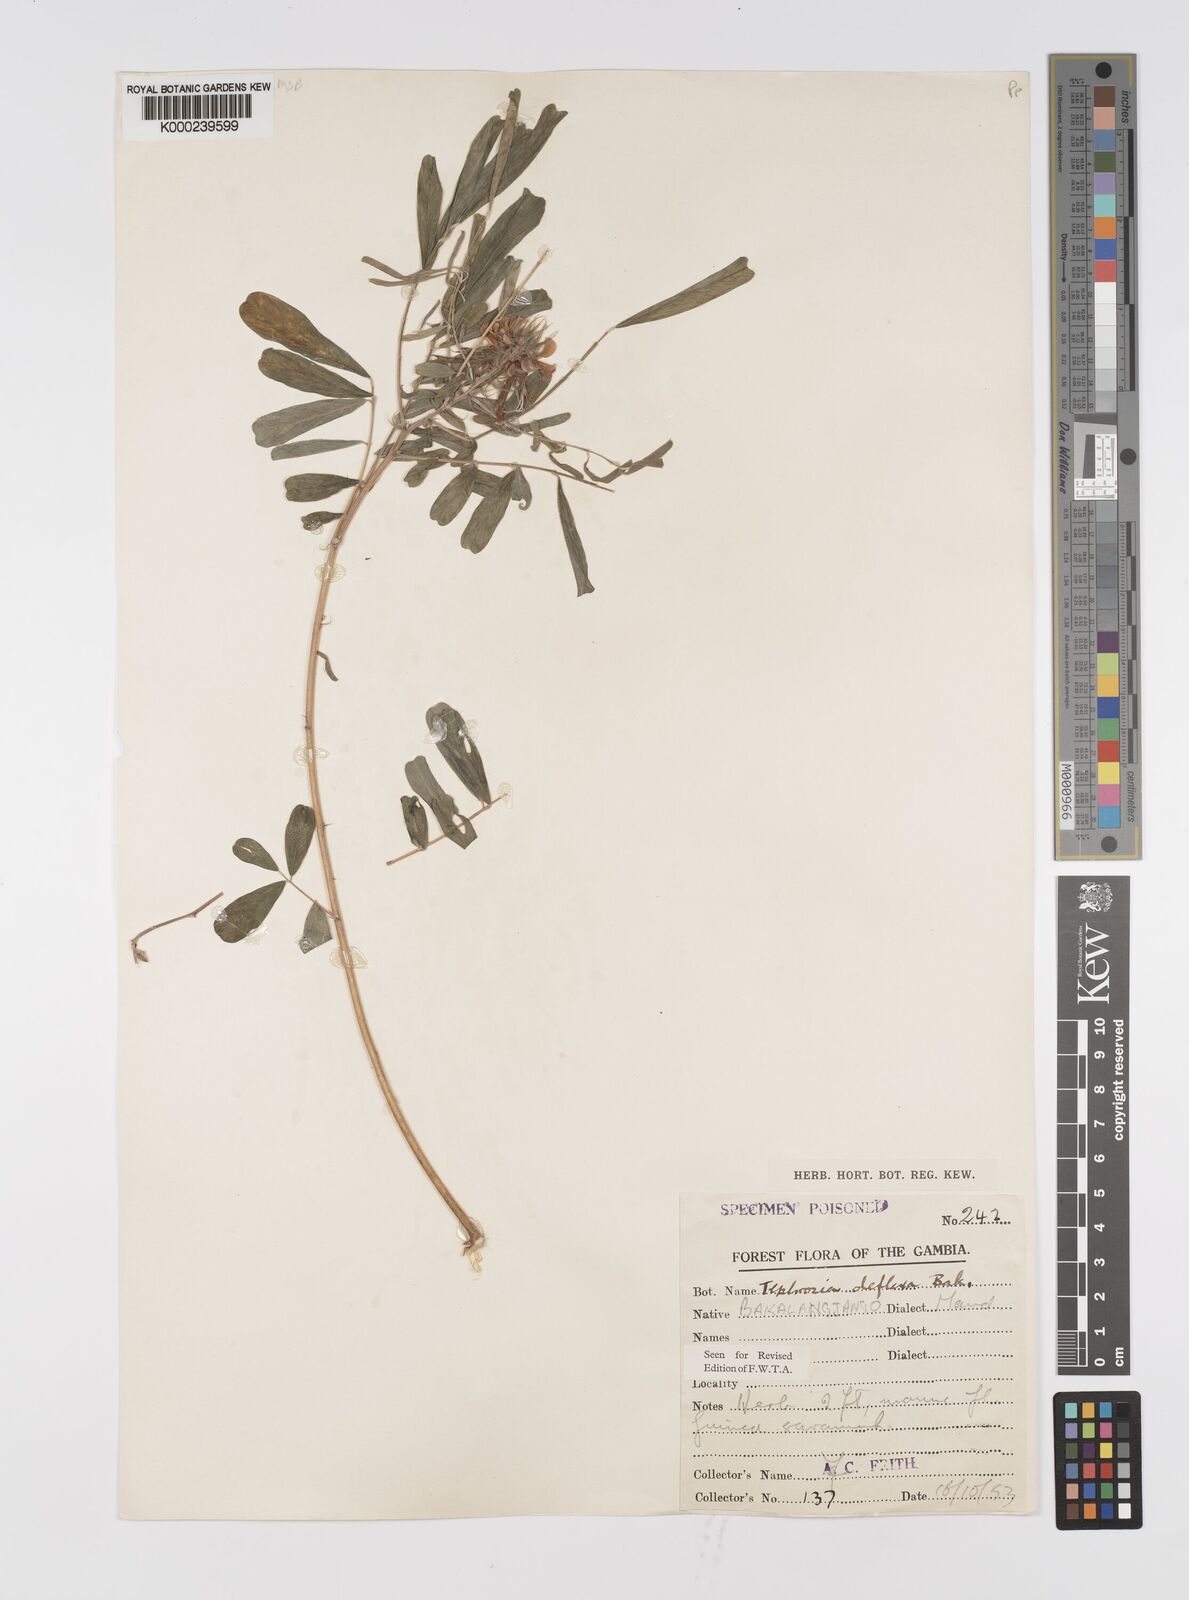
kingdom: Plantae
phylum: Tracheophyta
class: Magnoliopsida
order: Fabales
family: Fabaceae
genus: Tephrosia
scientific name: Tephrosia deflexa
